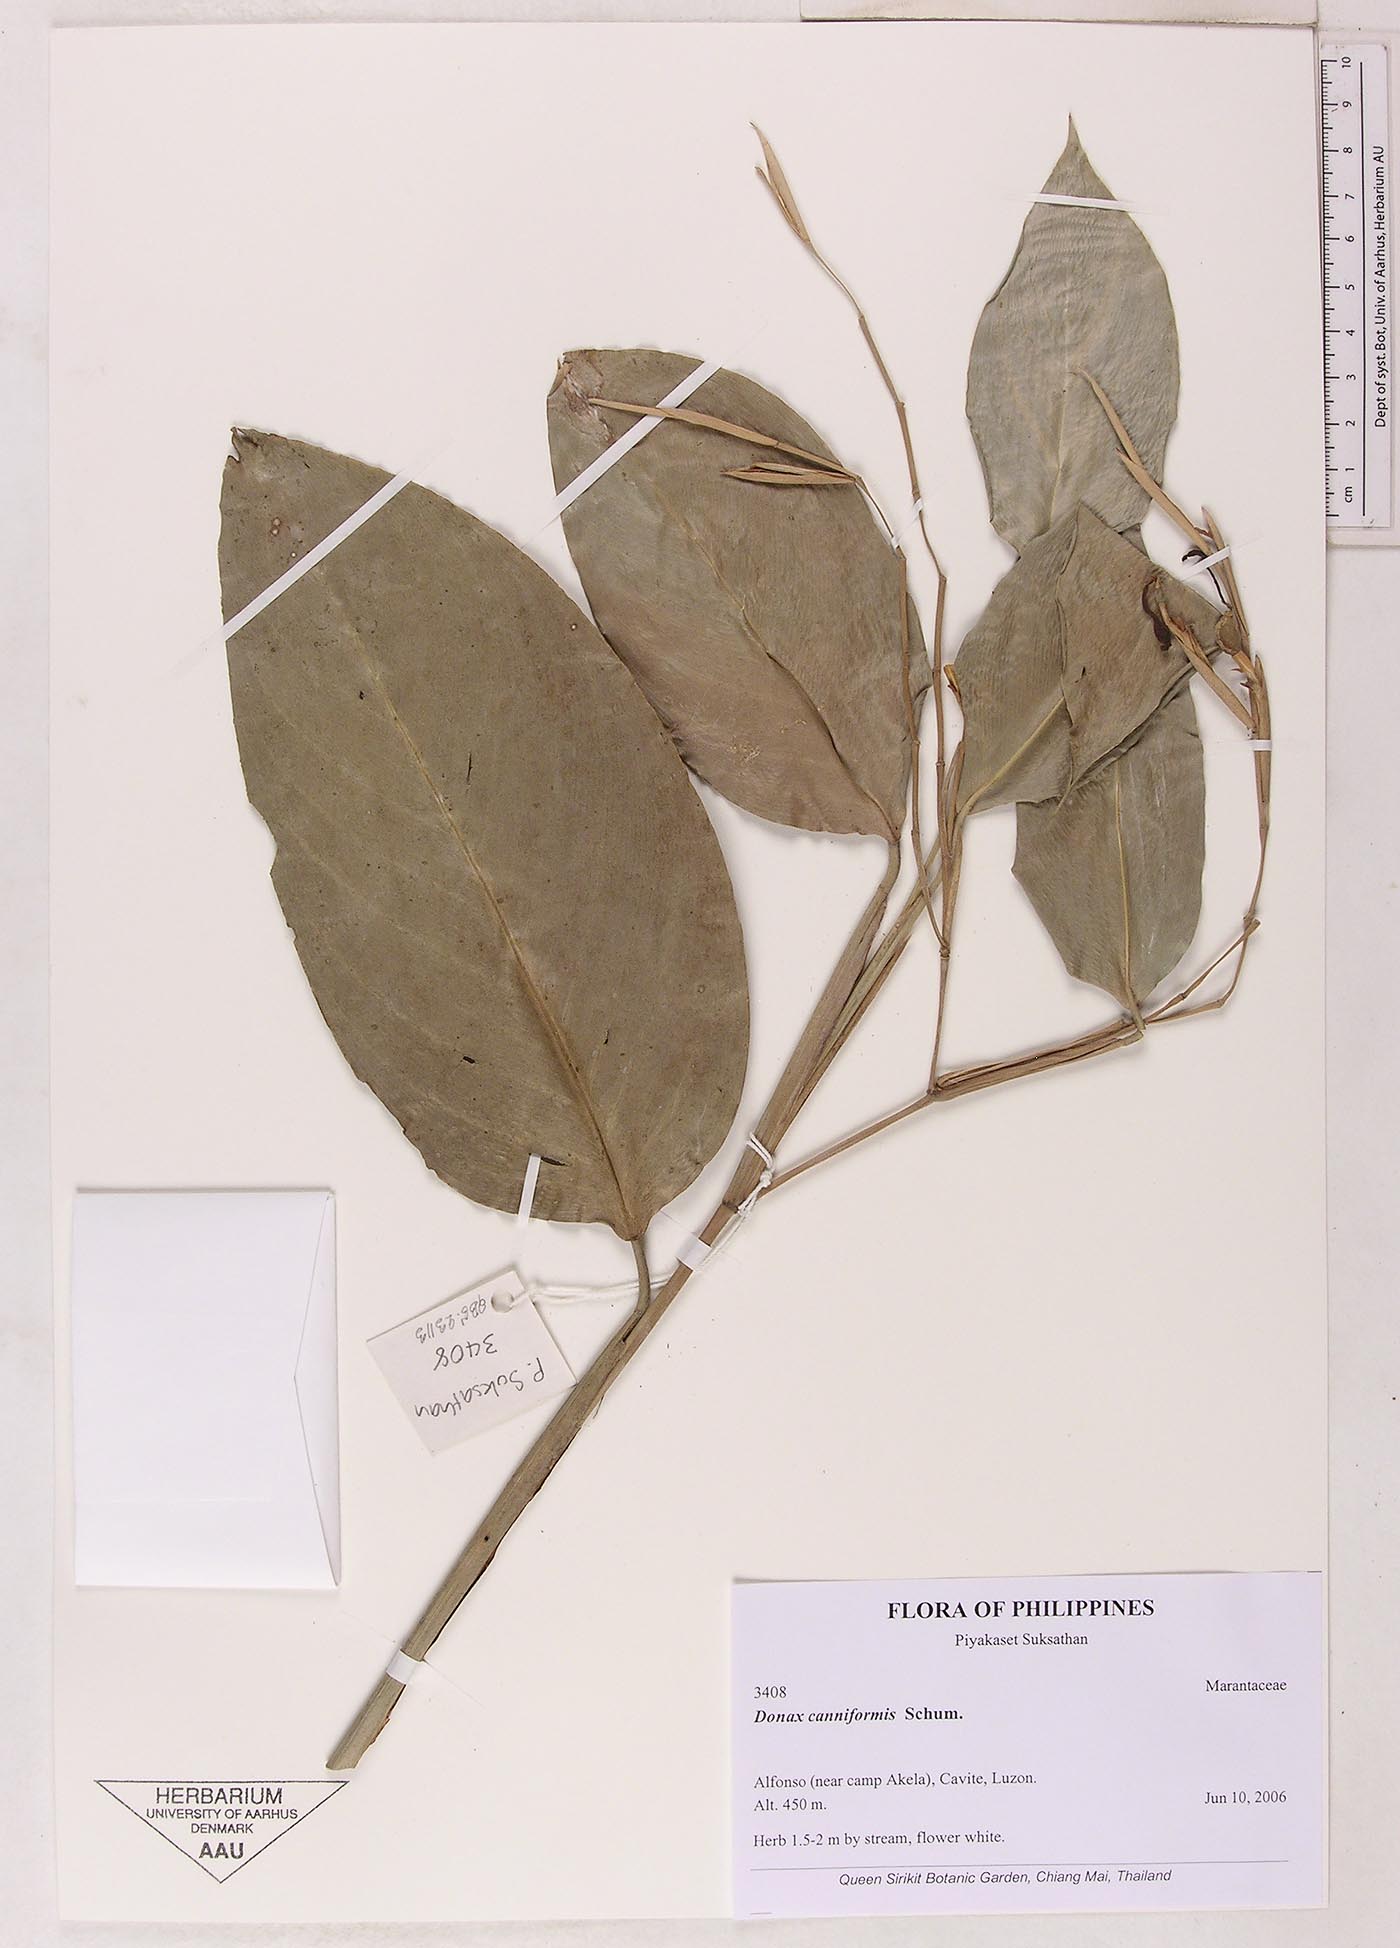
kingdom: Plantae
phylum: Tracheophyta
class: Liliopsida
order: Zingiberales
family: Marantaceae
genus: Donax
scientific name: Donax canniformis
